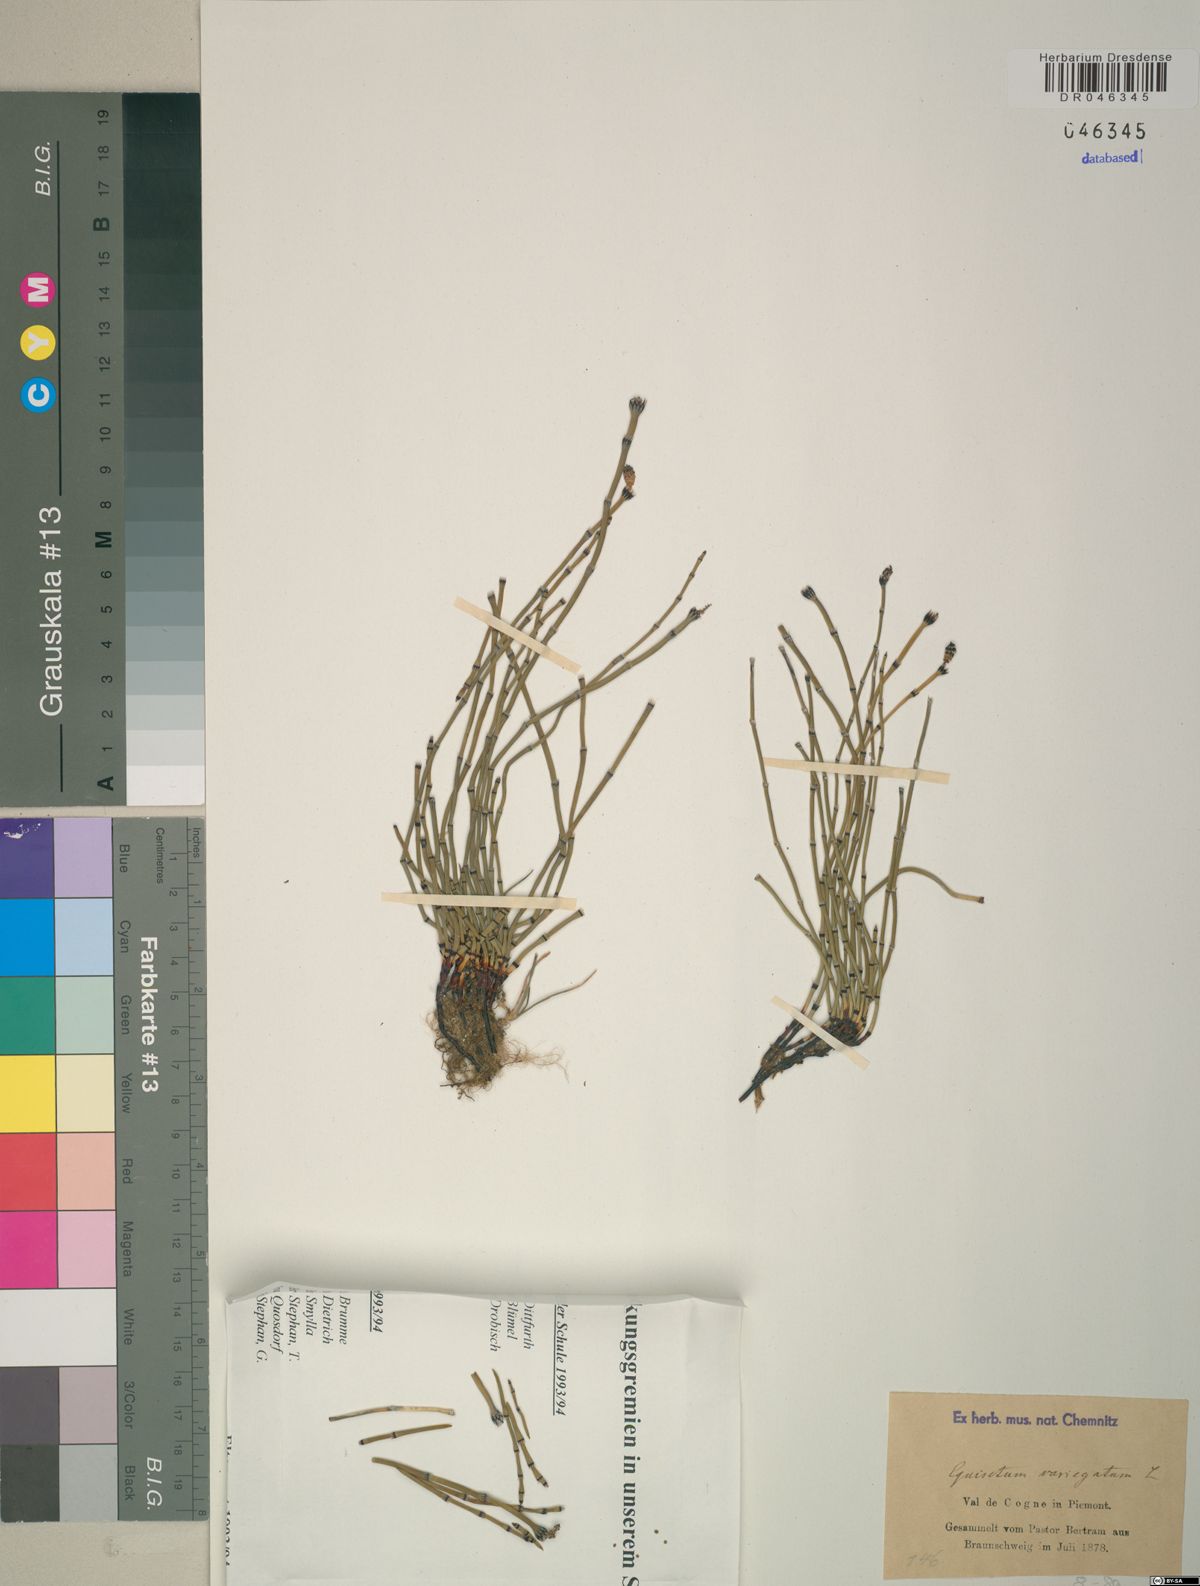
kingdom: Plantae
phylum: Tracheophyta
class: Polypodiopsida
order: Equisetales
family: Equisetaceae
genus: Equisetum
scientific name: Equisetum variegatum
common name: Variegated horsetail
